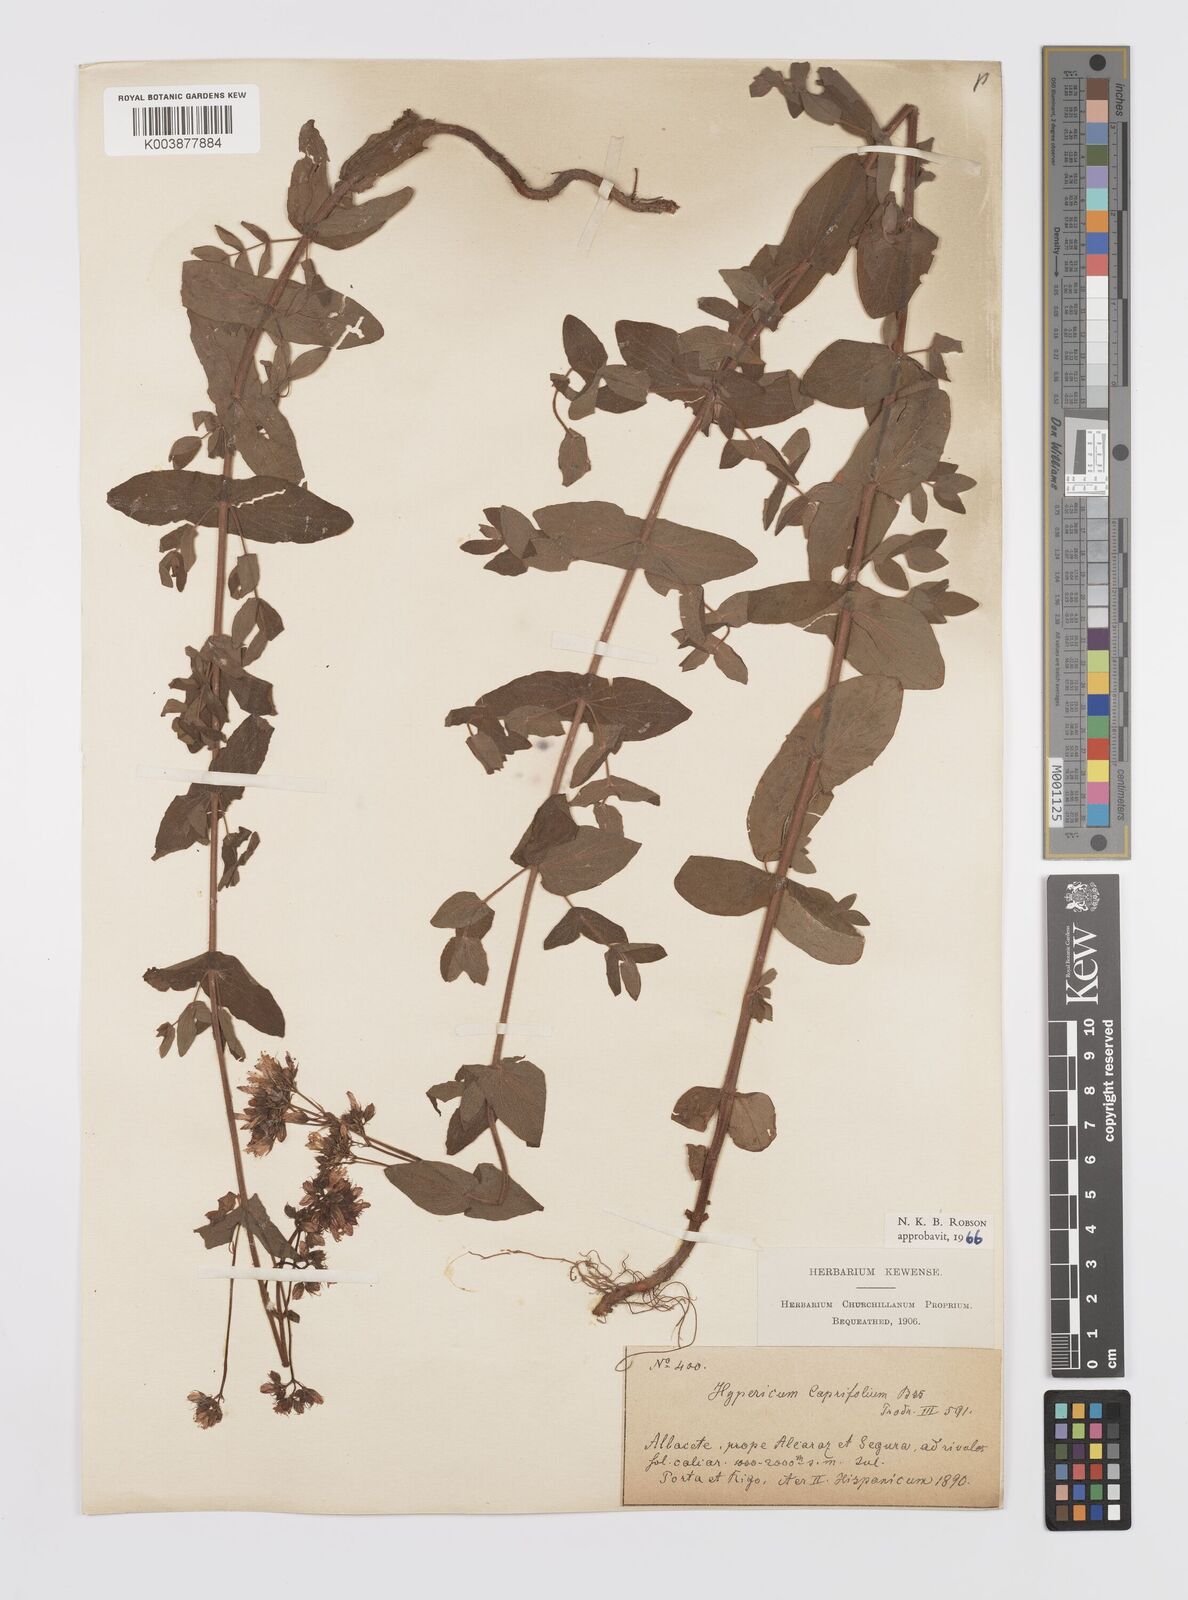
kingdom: Plantae
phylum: Tracheophyta
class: Magnoliopsida
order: Malpighiales
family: Hypericaceae
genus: Hypericum
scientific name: Hypericum caprifolium
